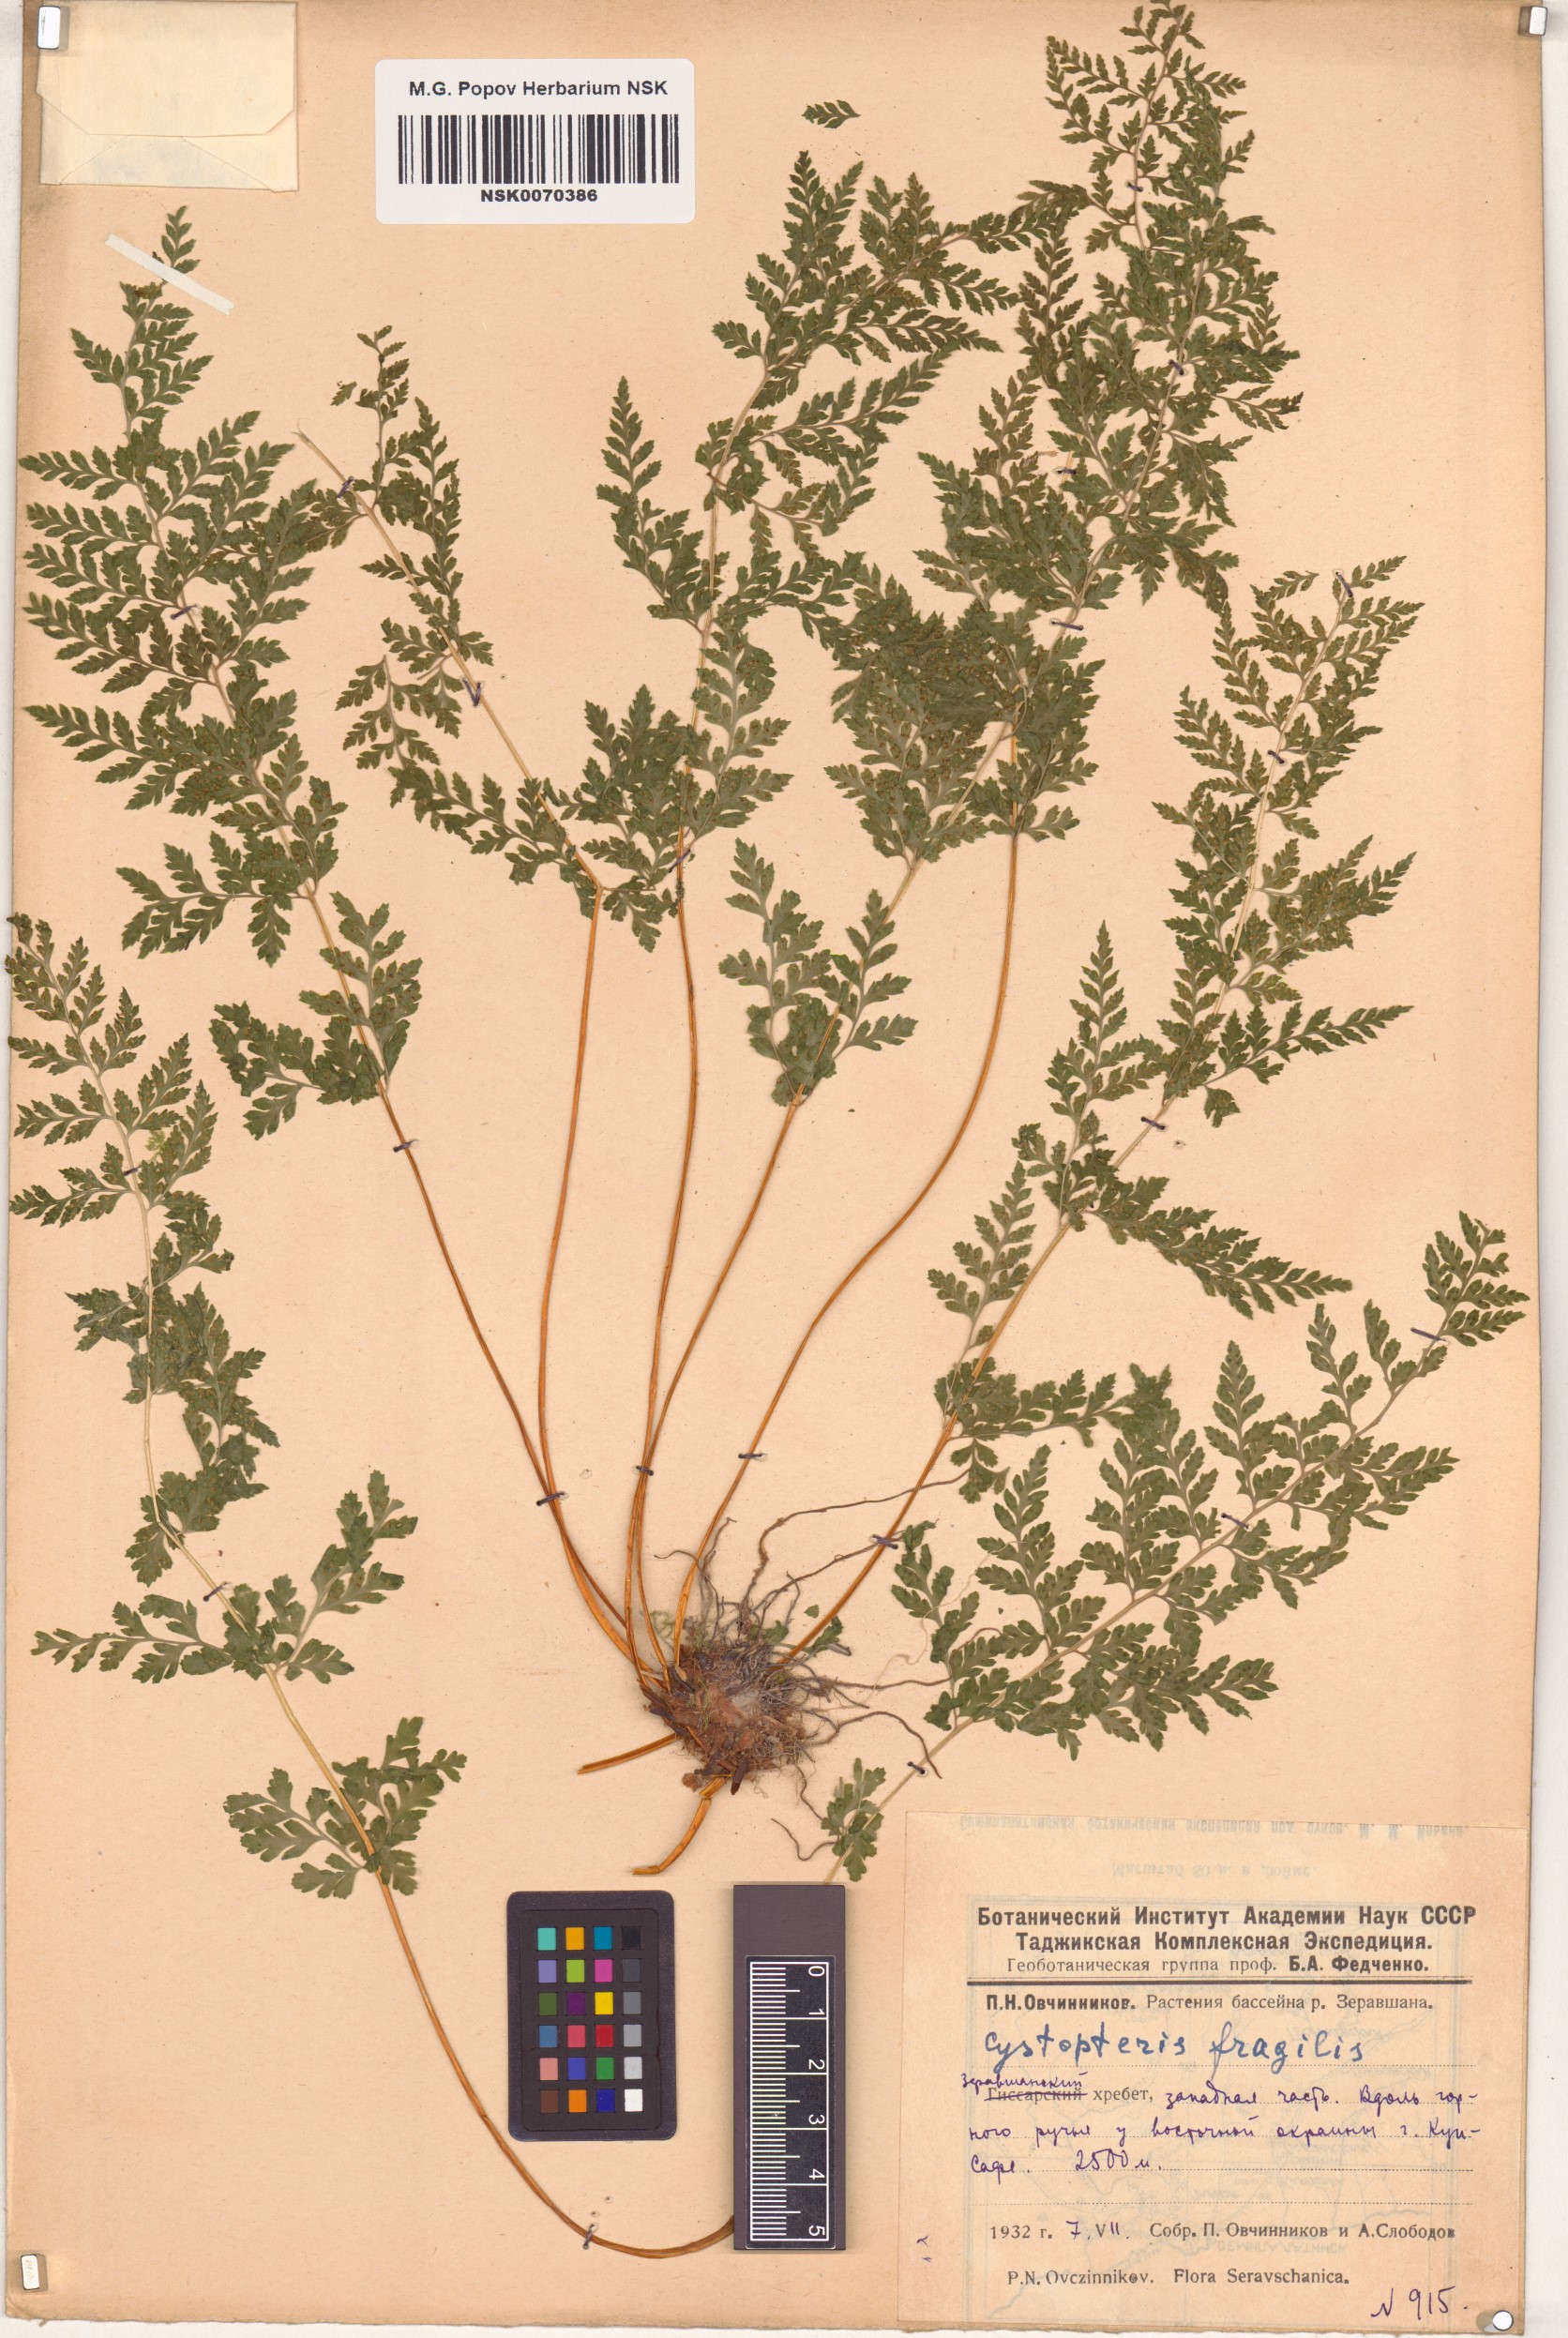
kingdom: Plantae
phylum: Tracheophyta
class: Polypodiopsida
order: Polypodiales
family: Cystopteridaceae
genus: Cystopteris
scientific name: Cystopteris fragilis
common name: Brittle bladder fern
